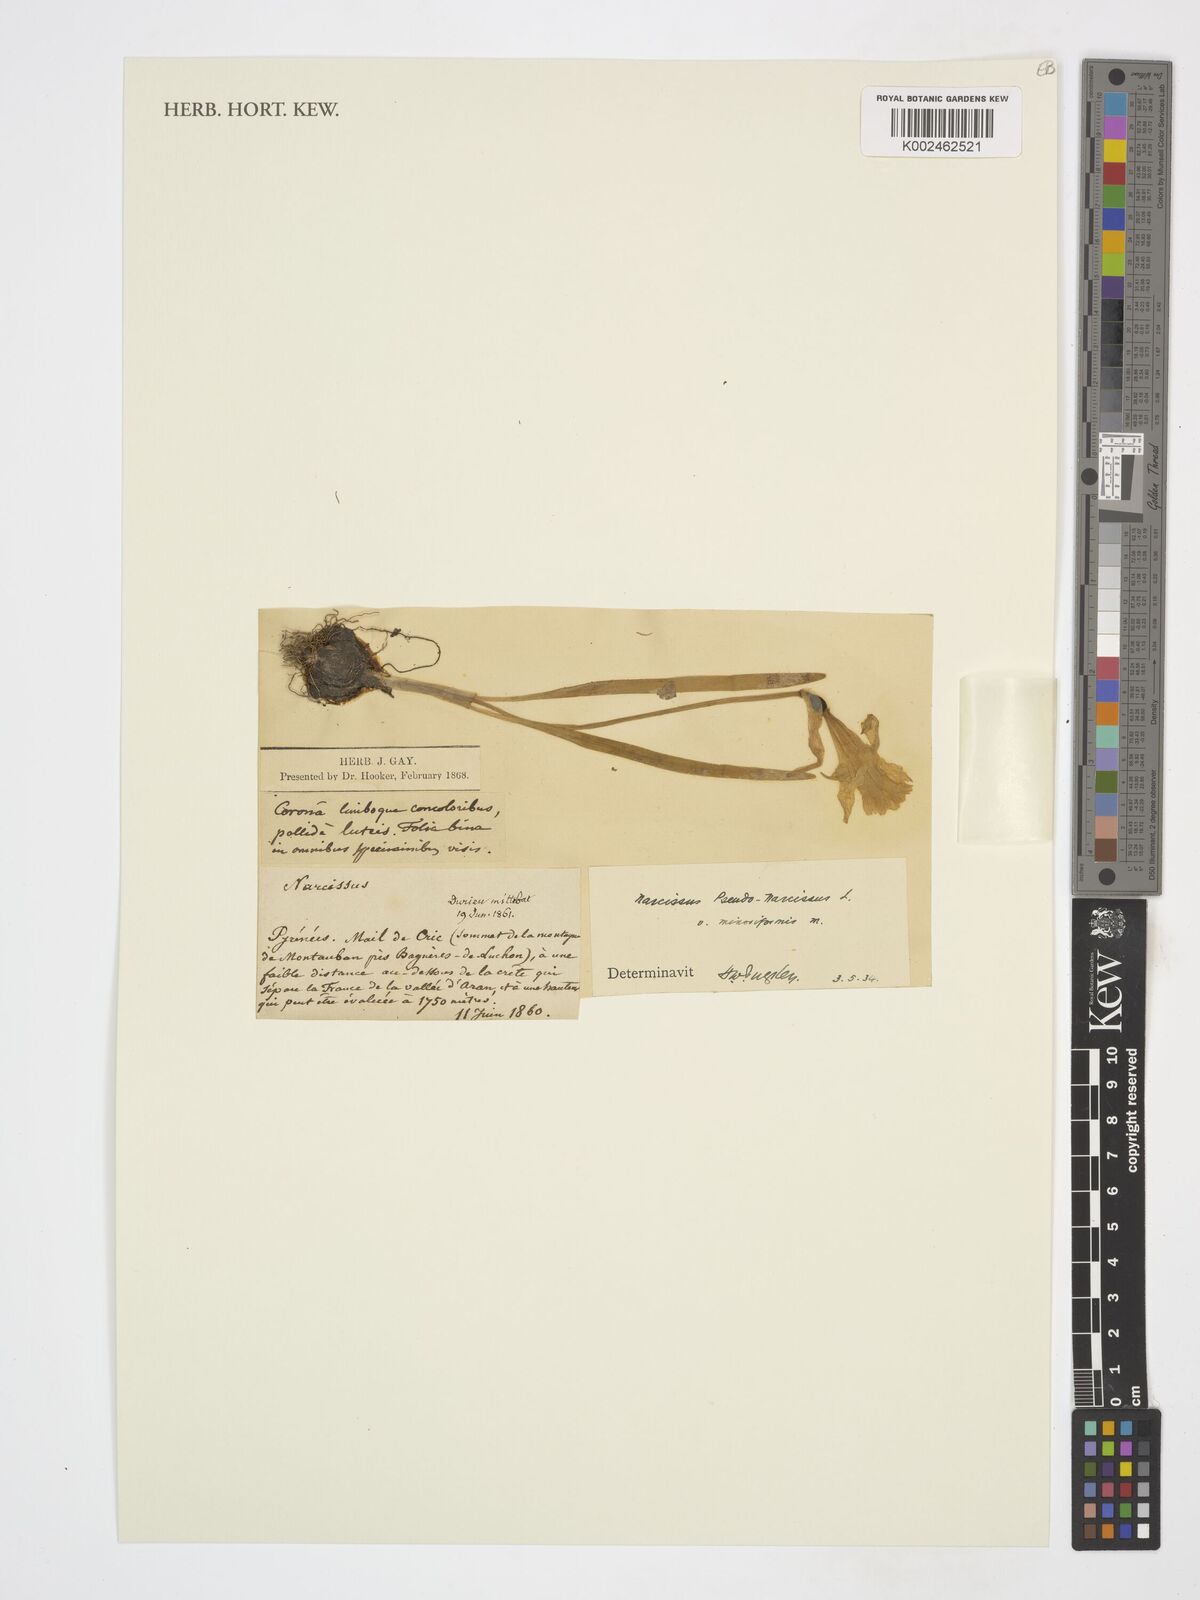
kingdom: Plantae
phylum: Tracheophyta
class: Liliopsida
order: Asparagales
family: Amaryllidaceae
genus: Narcissus
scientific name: Narcissus pseudonarcissus
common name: Daffodil
